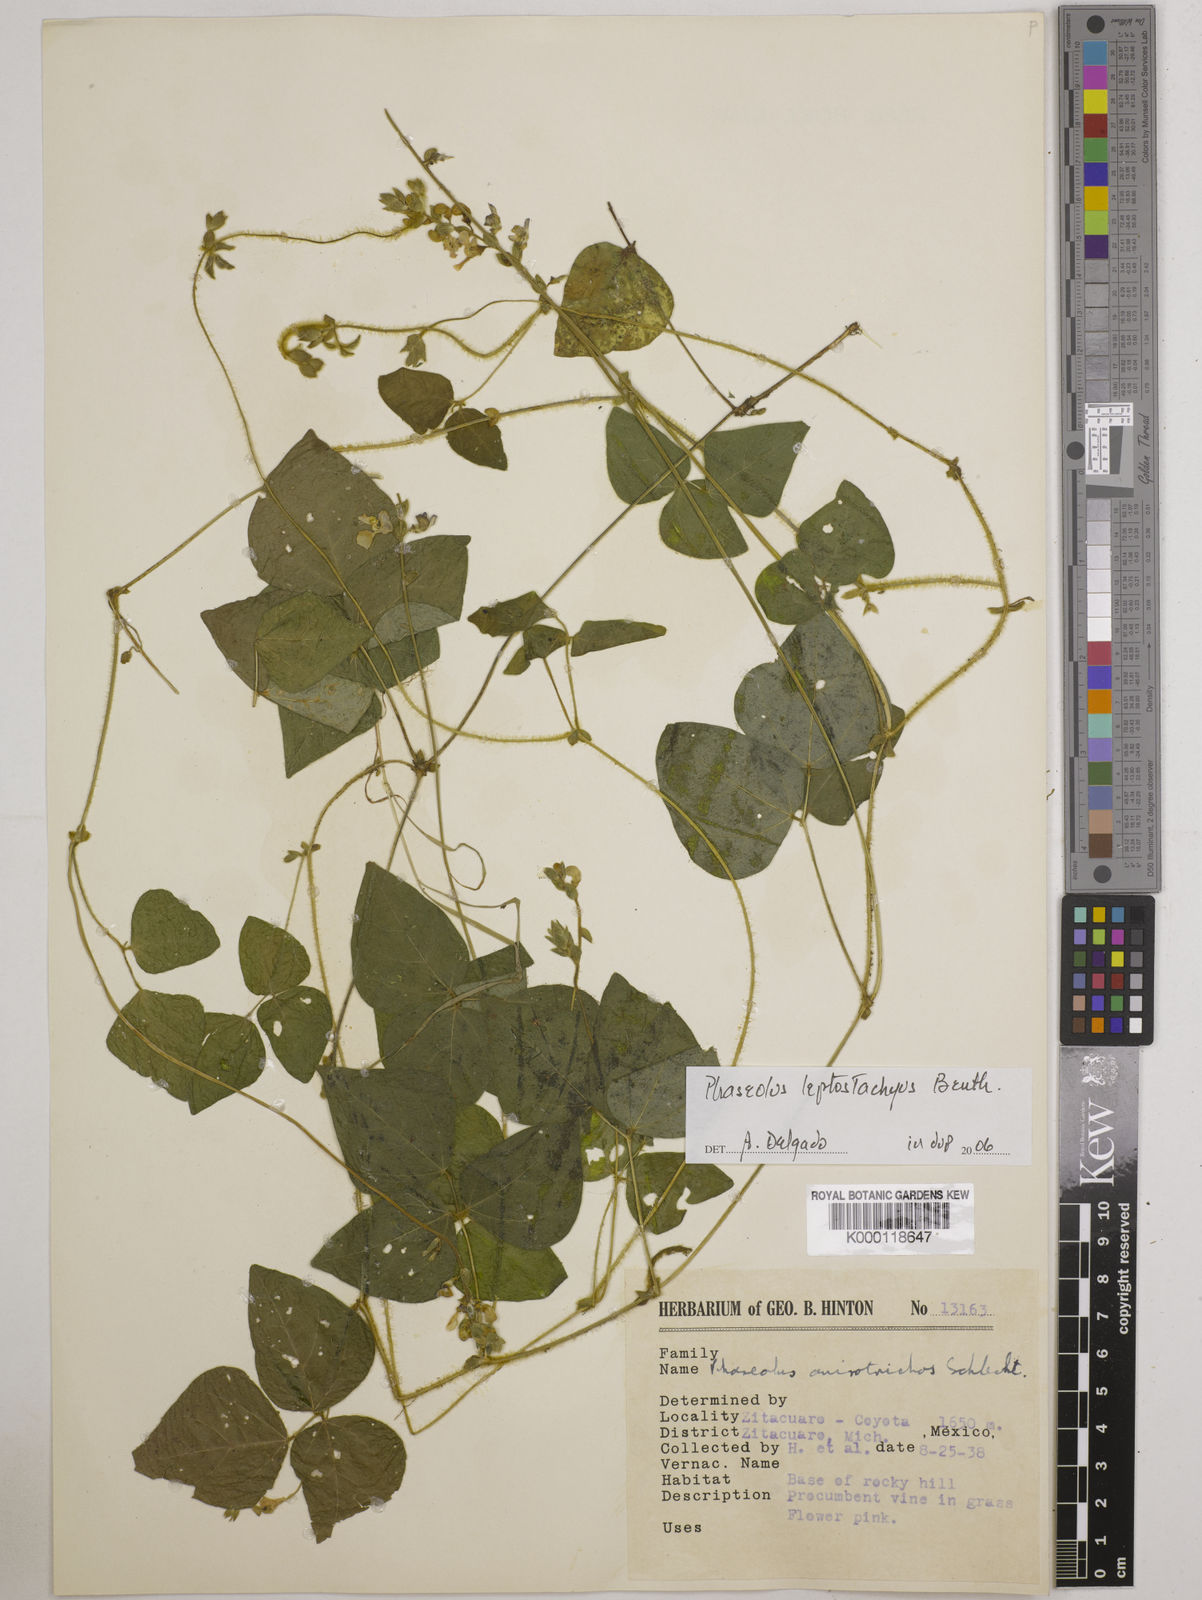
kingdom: Plantae
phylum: Tracheophyta
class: Magnoliopsida
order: Fabales
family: Fabaceae
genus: Phaseolus
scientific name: Phaseolus
